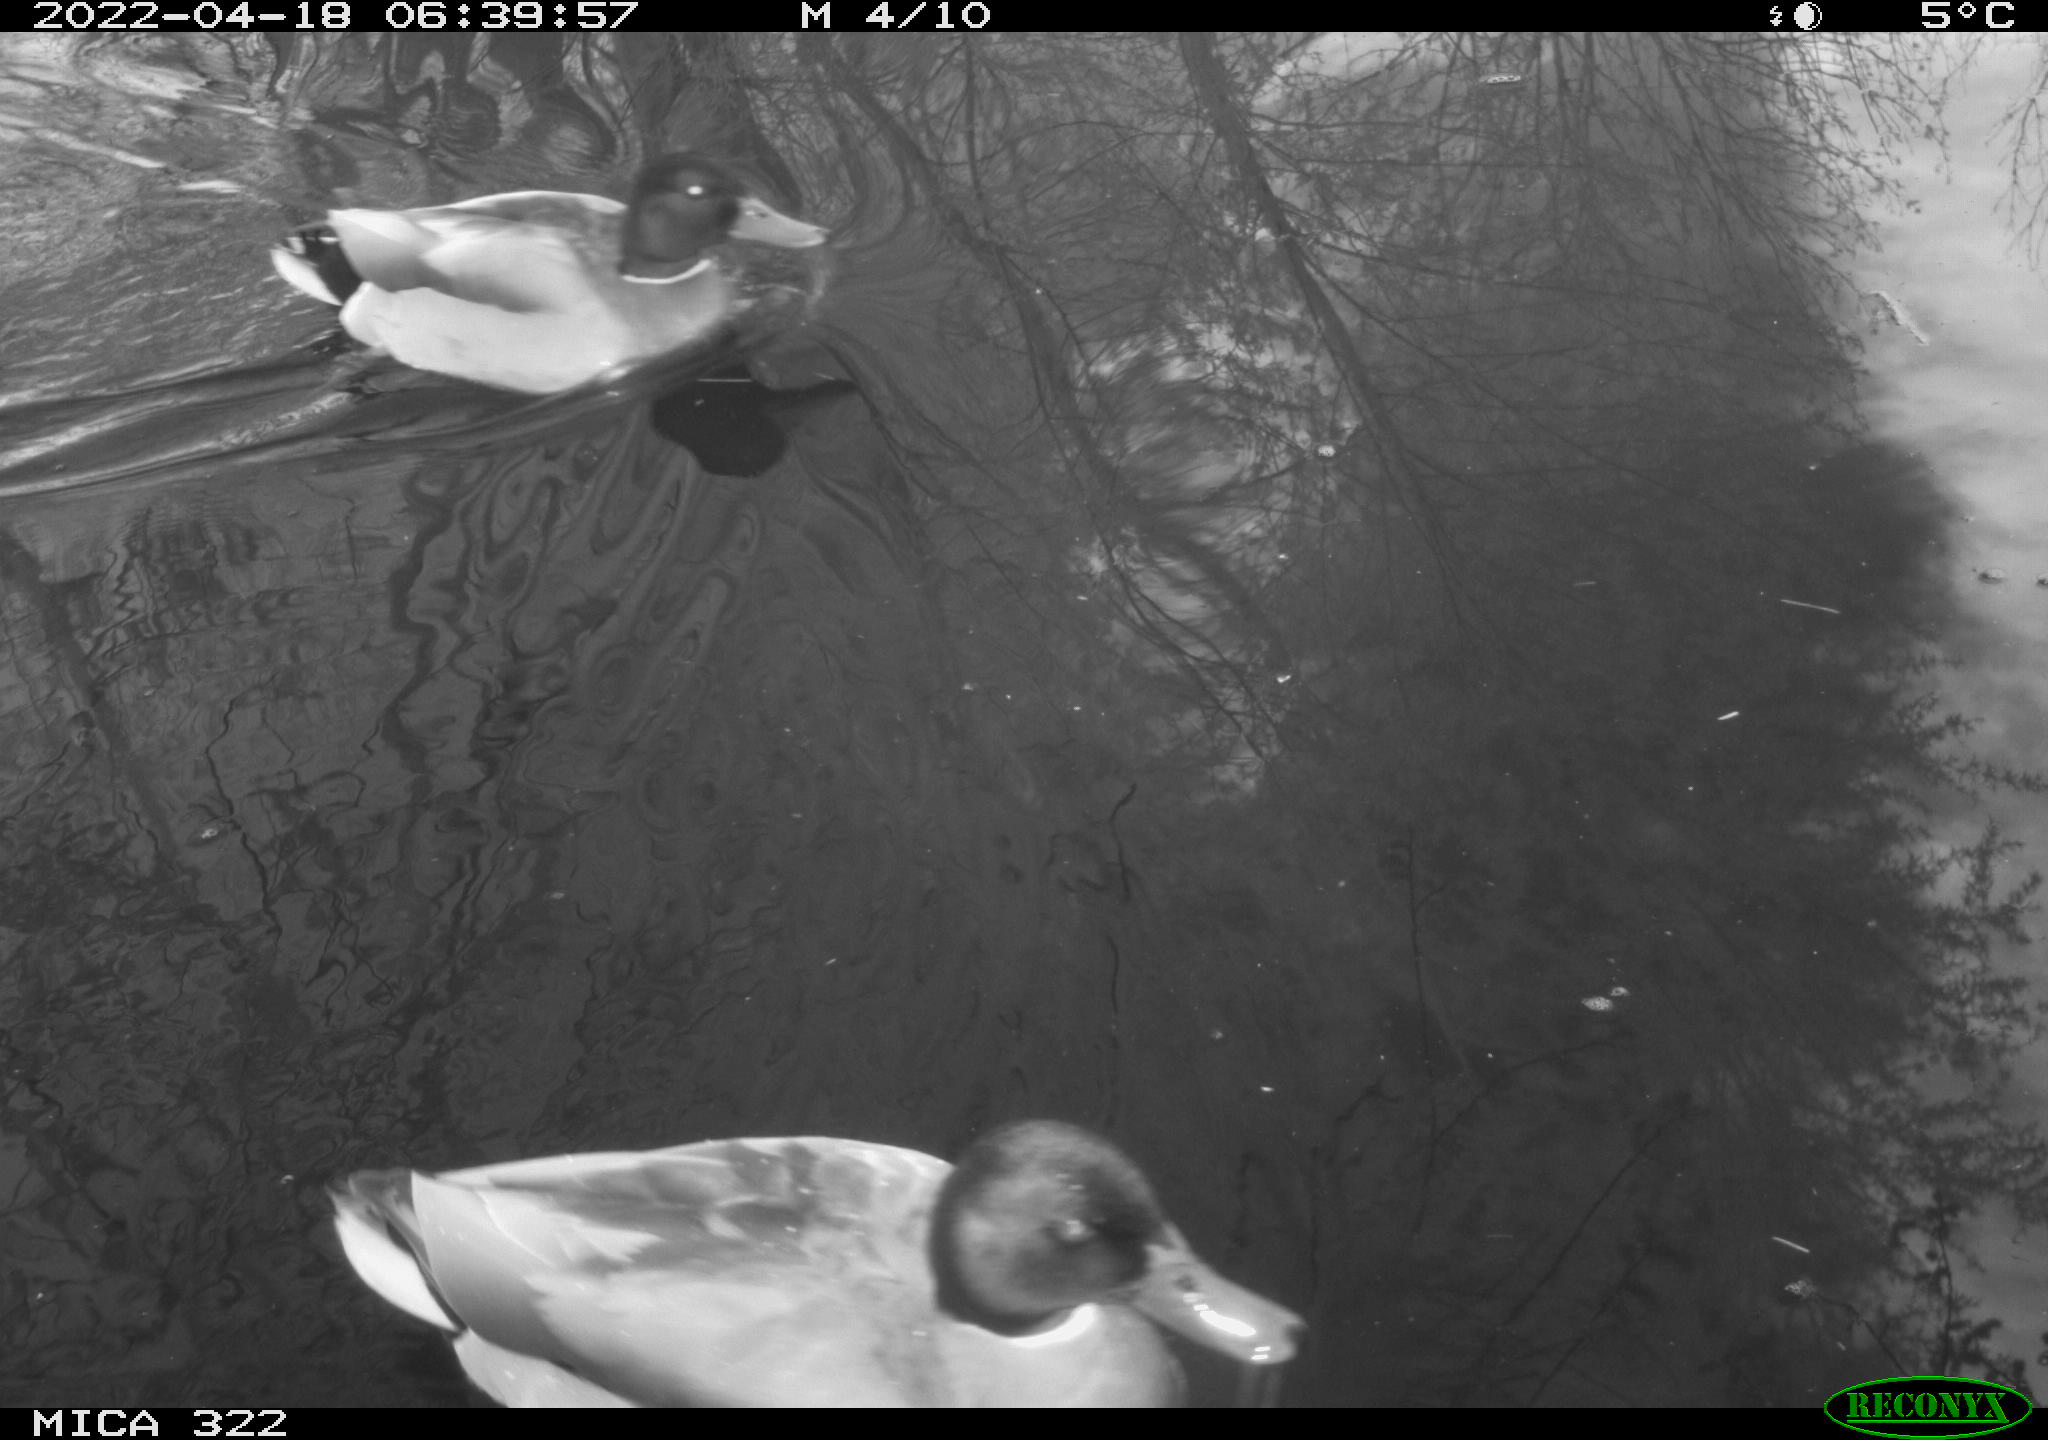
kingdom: Animalia
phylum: Chordata
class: Aves
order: Anseriformes
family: Anatidae
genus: Anas
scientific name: Anas platyrhynchos
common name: Mallard
